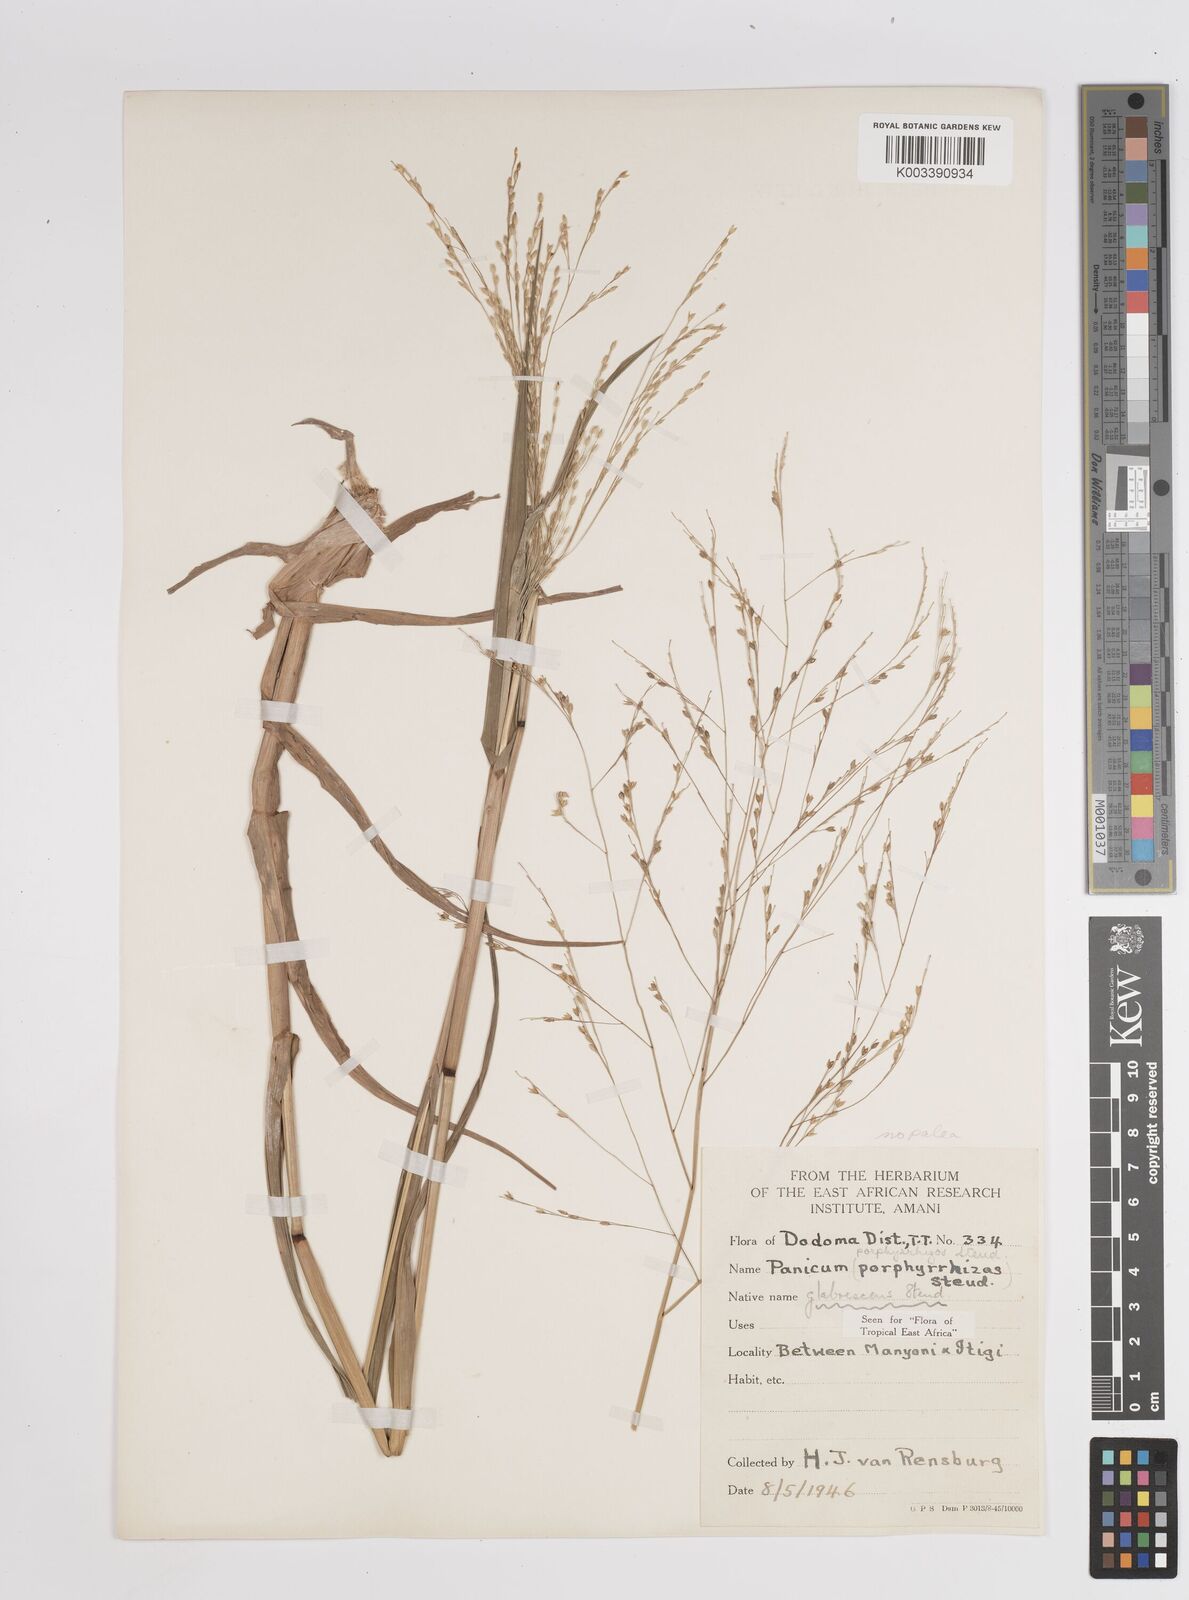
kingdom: Plantae
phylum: Tracheophyta
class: Liliopsida
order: Poales
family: Poaceae
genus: Panicum
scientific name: Panicum subalbidum
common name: Elbow buffalo grass
